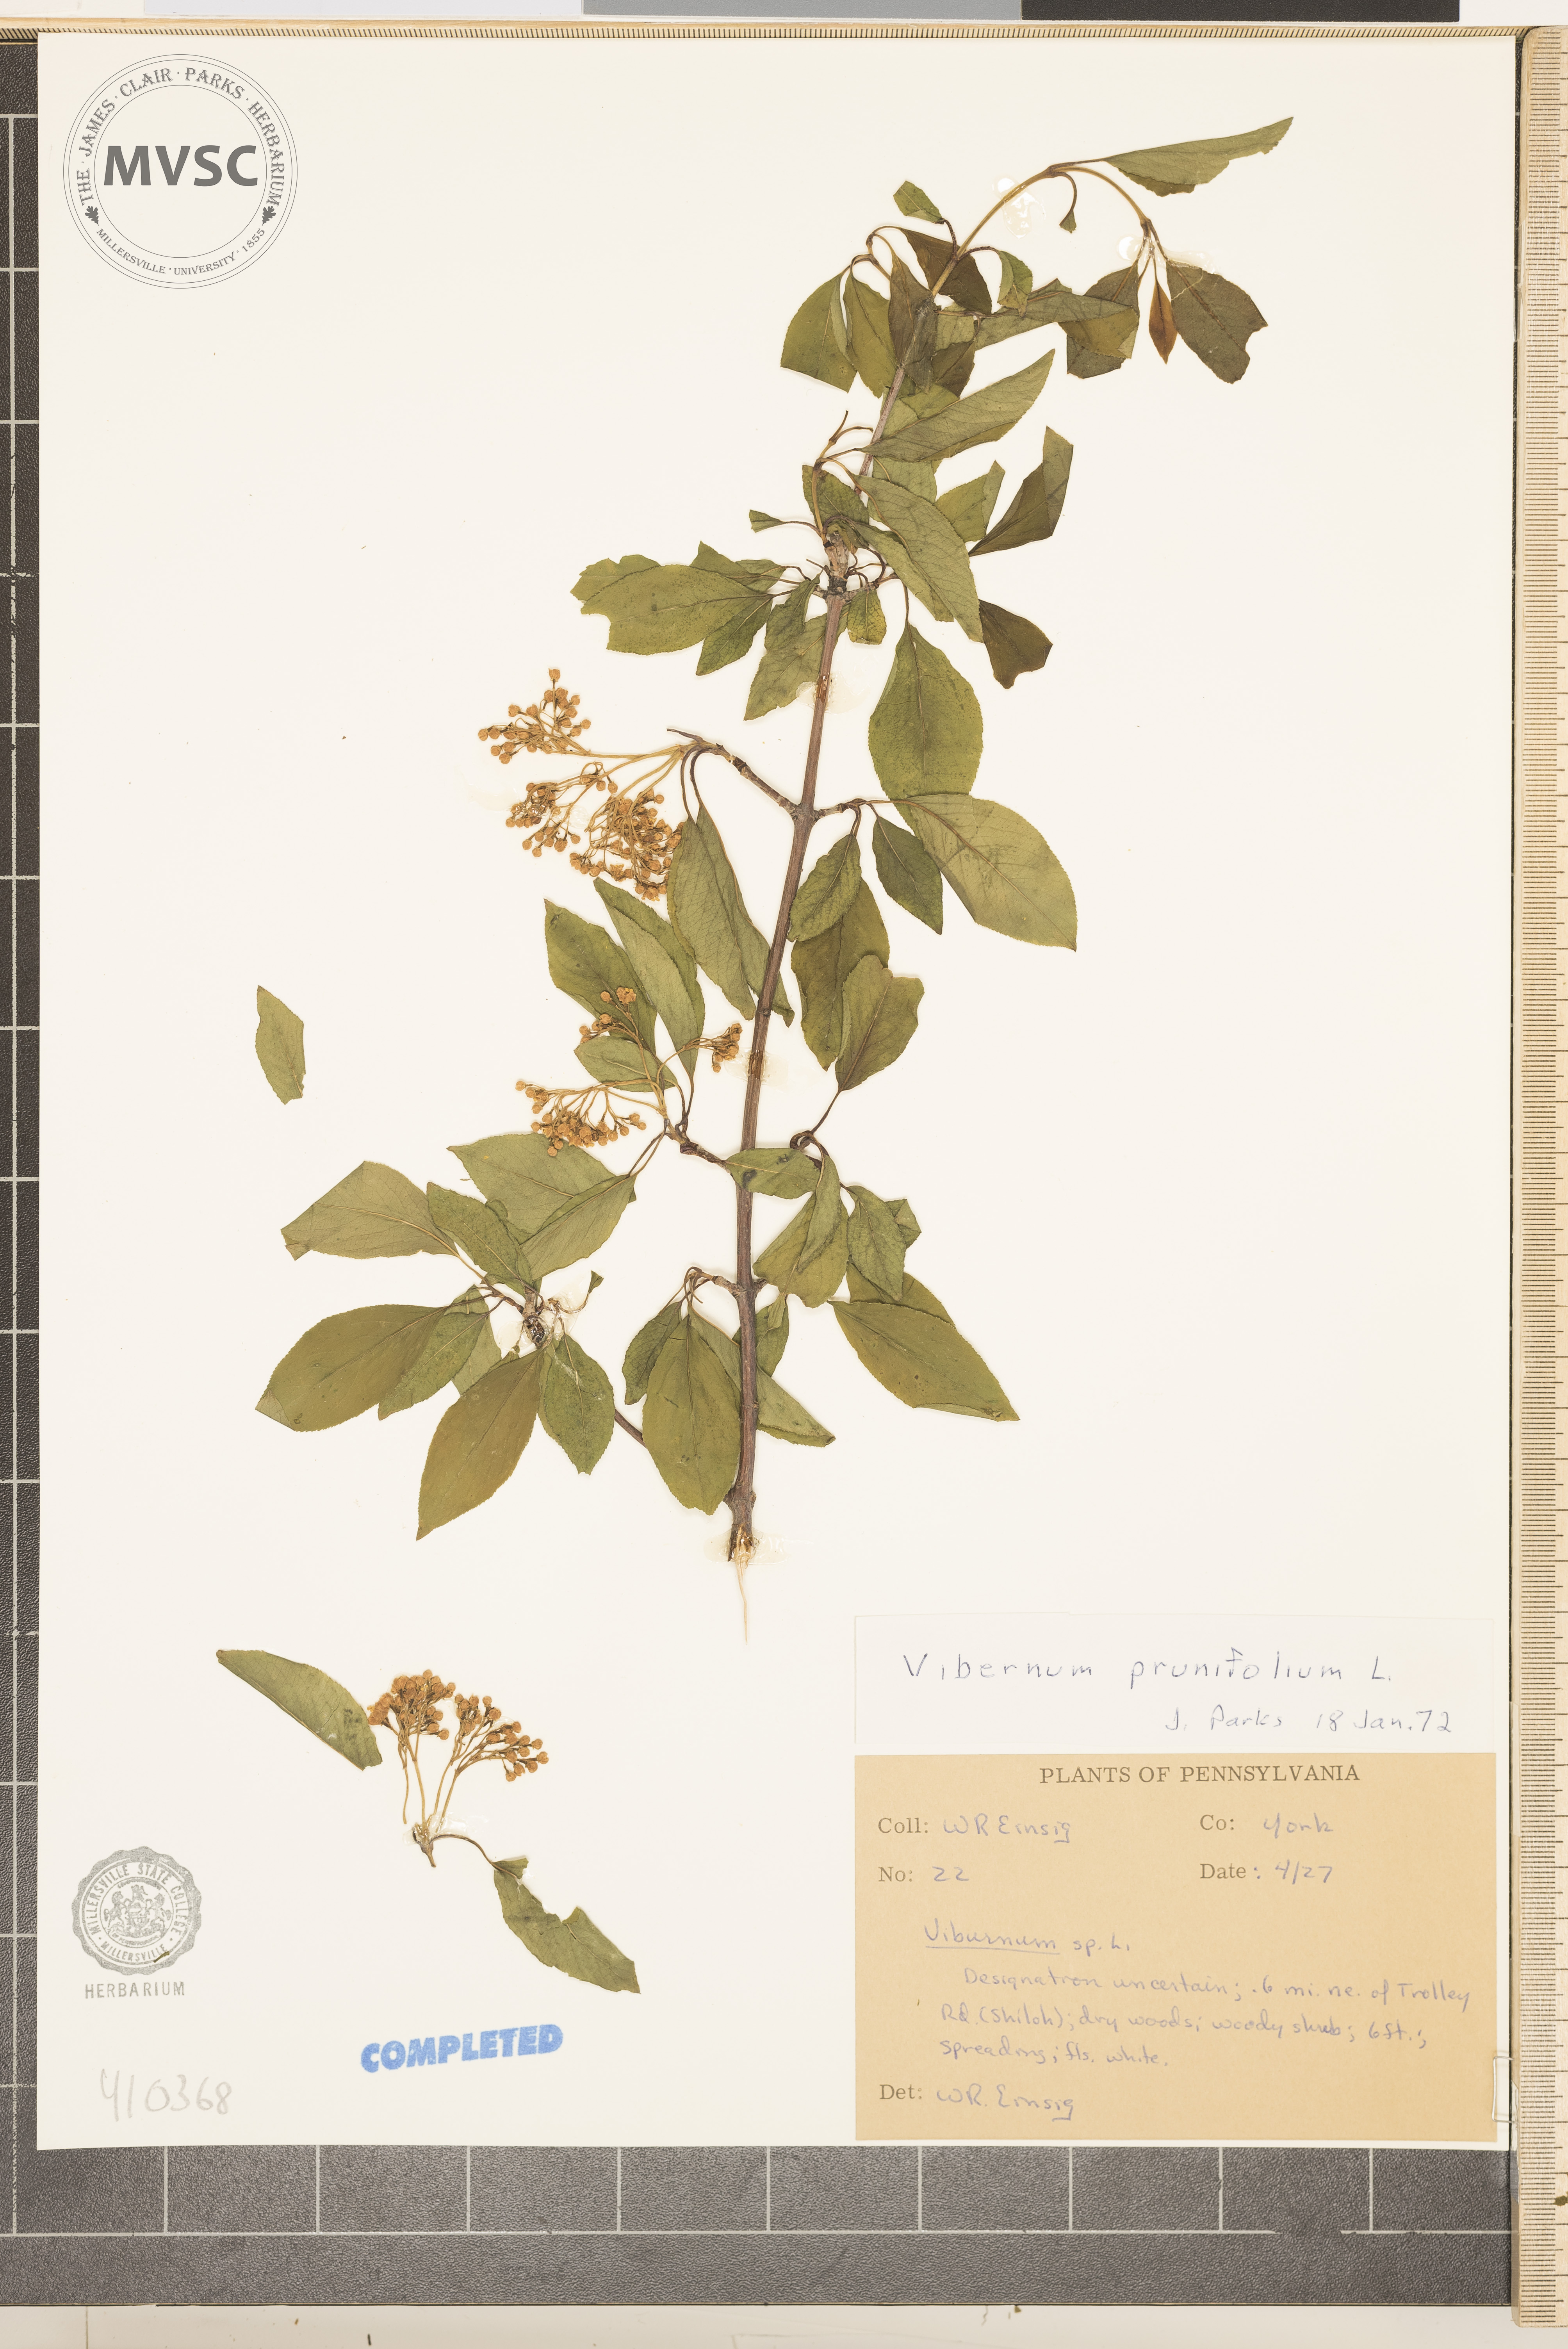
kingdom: Plantae
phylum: Tracheophyta
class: Magnoliopsida
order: Dipsacales
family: Viburnaceae
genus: Viburnum
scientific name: Viburnum prunifolium
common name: blackhaw
